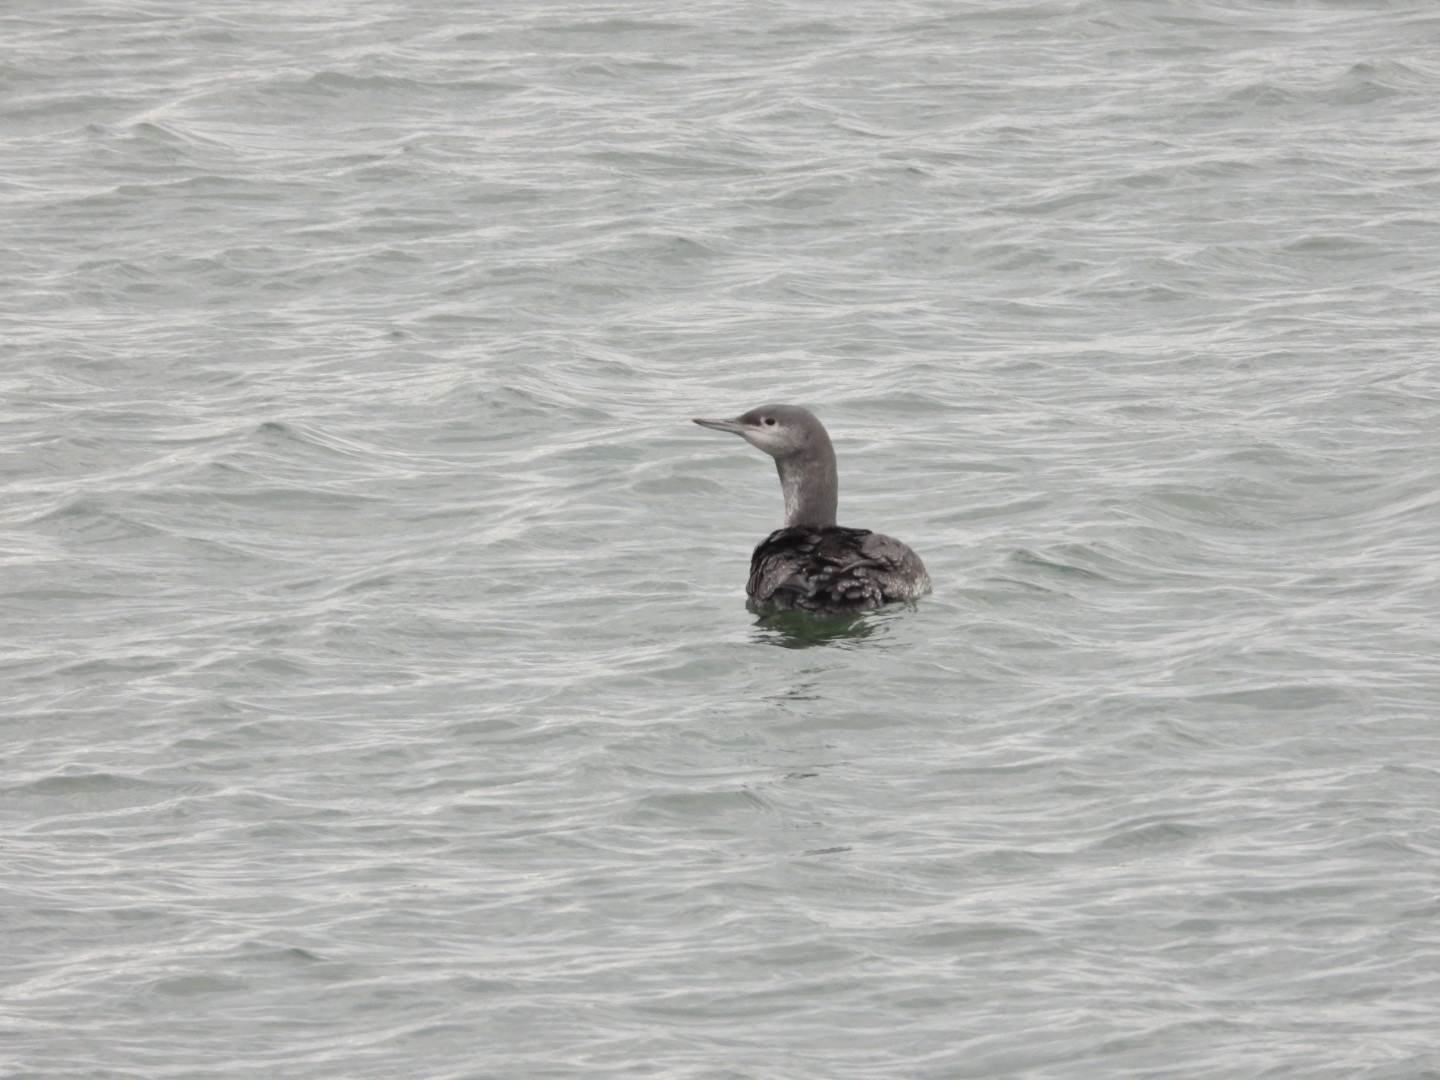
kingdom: Animalia
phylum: Chordata
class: Aves
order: Gaviiformes
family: Gaviidae
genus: Gavia
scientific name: Gavia stellata
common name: Rødstrubet lom
